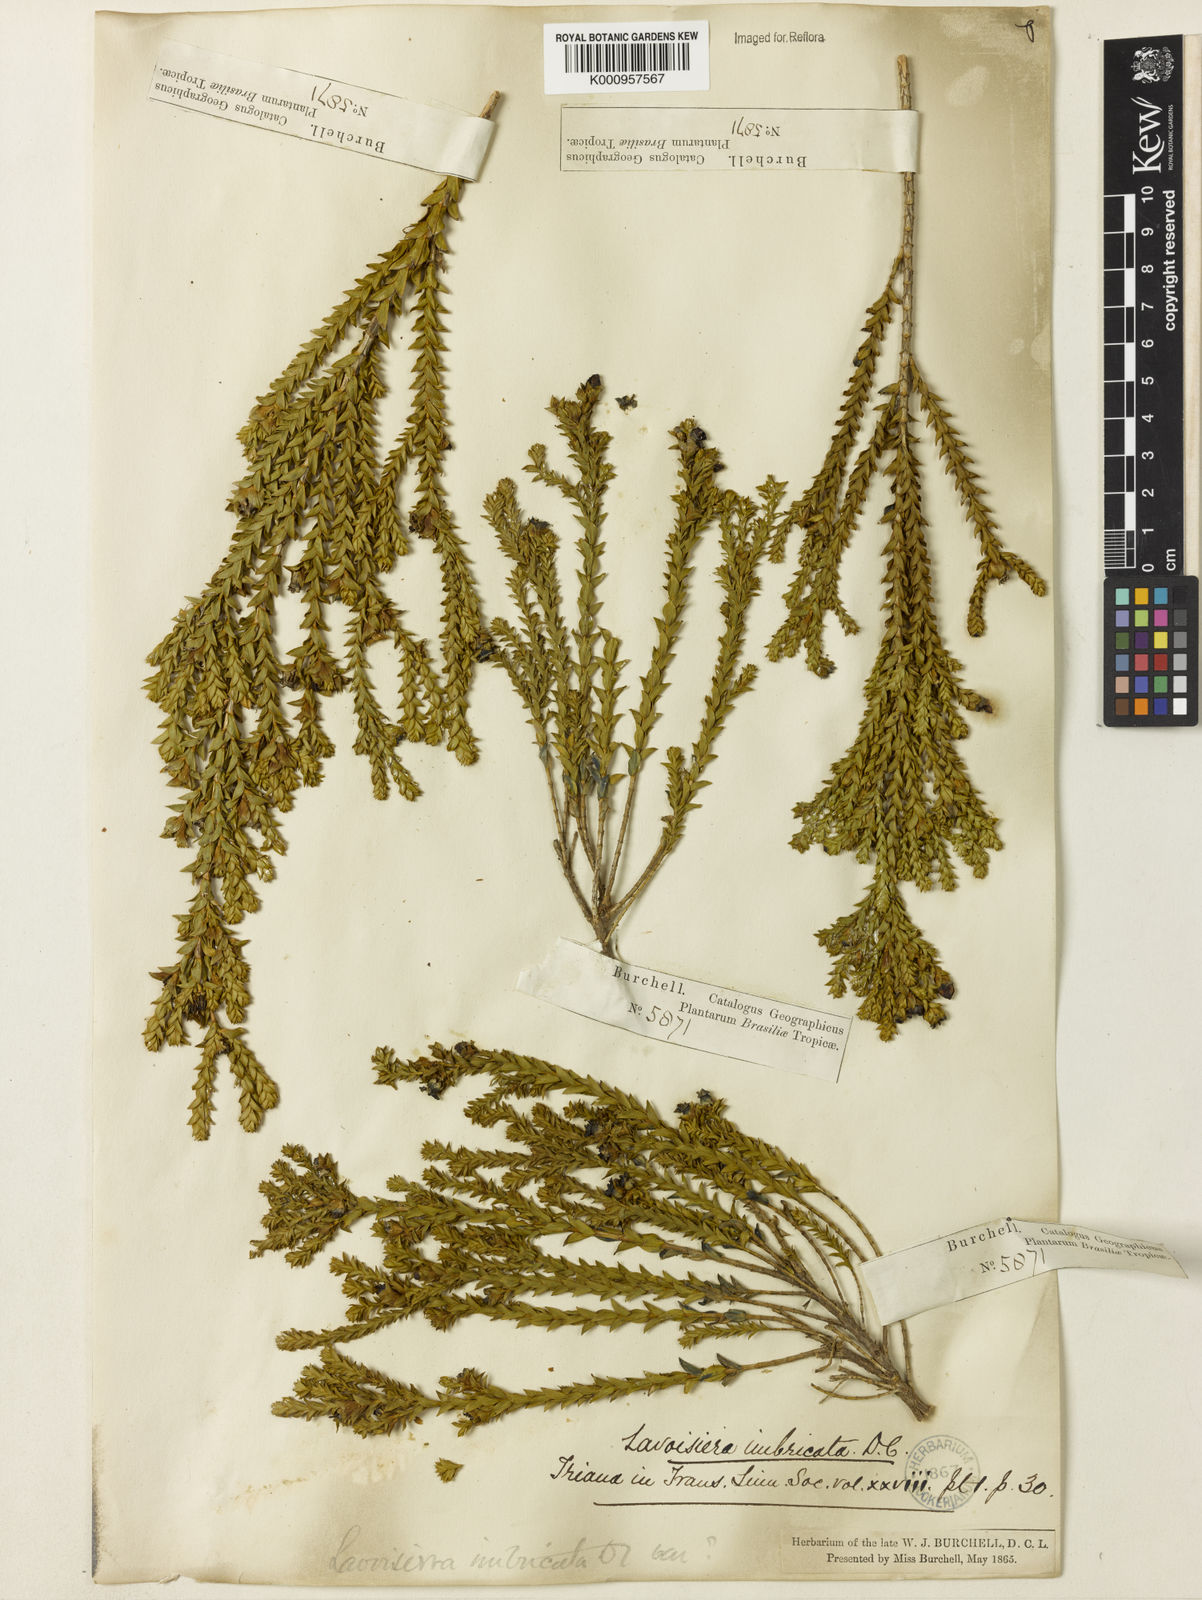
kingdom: Plantae
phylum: Tracheophyta
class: Magnoliopsida
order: Myrtales
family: Melastomataceae
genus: Microlicia
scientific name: Microlicia cataphracta
